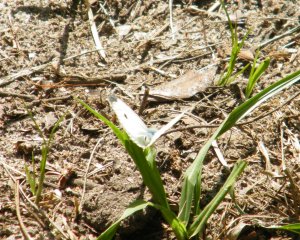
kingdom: Animalia
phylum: Arthropoda
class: Insecta
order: Lepidoptera
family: Pieridae
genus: Pieris
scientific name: Pieris rapae
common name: Cabbage White
